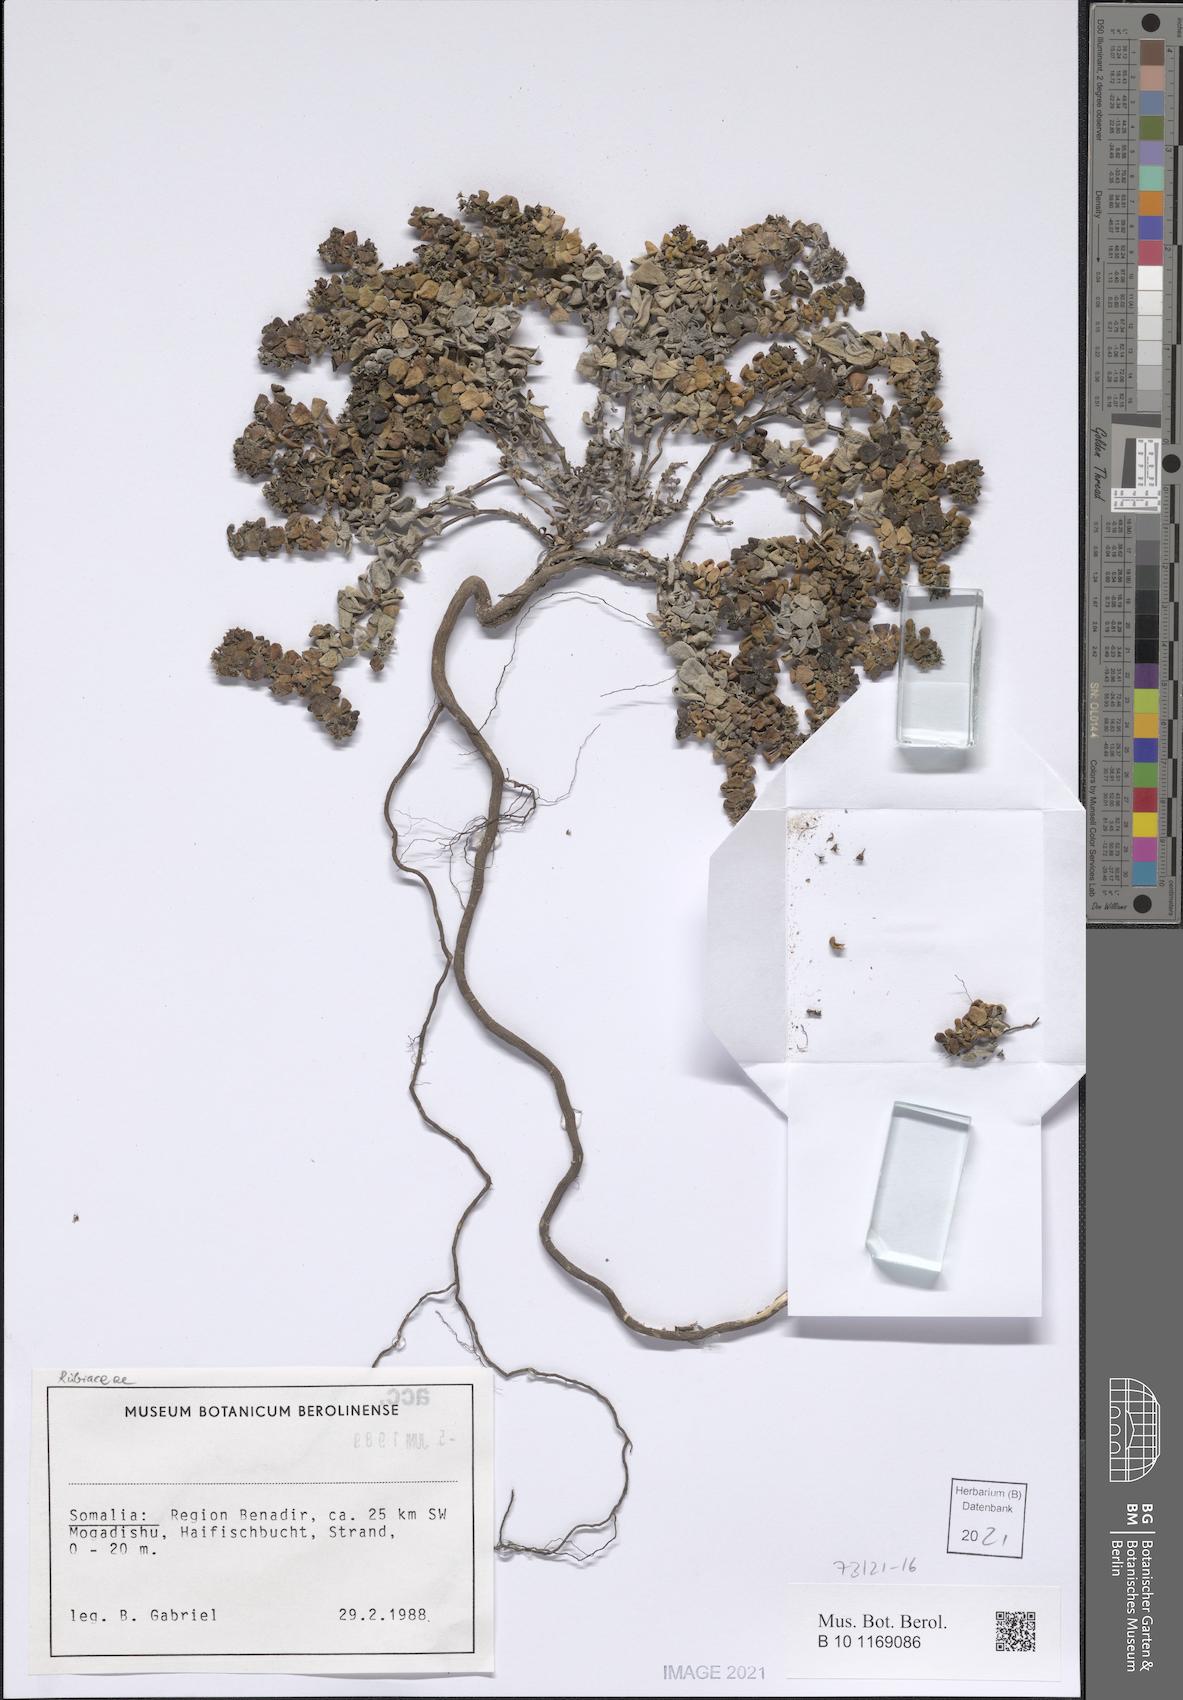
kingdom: Plantae
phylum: Tracheophyta
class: Magnoliopsida
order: Gentianales
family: Rubiaceae
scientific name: Rubiaceae
